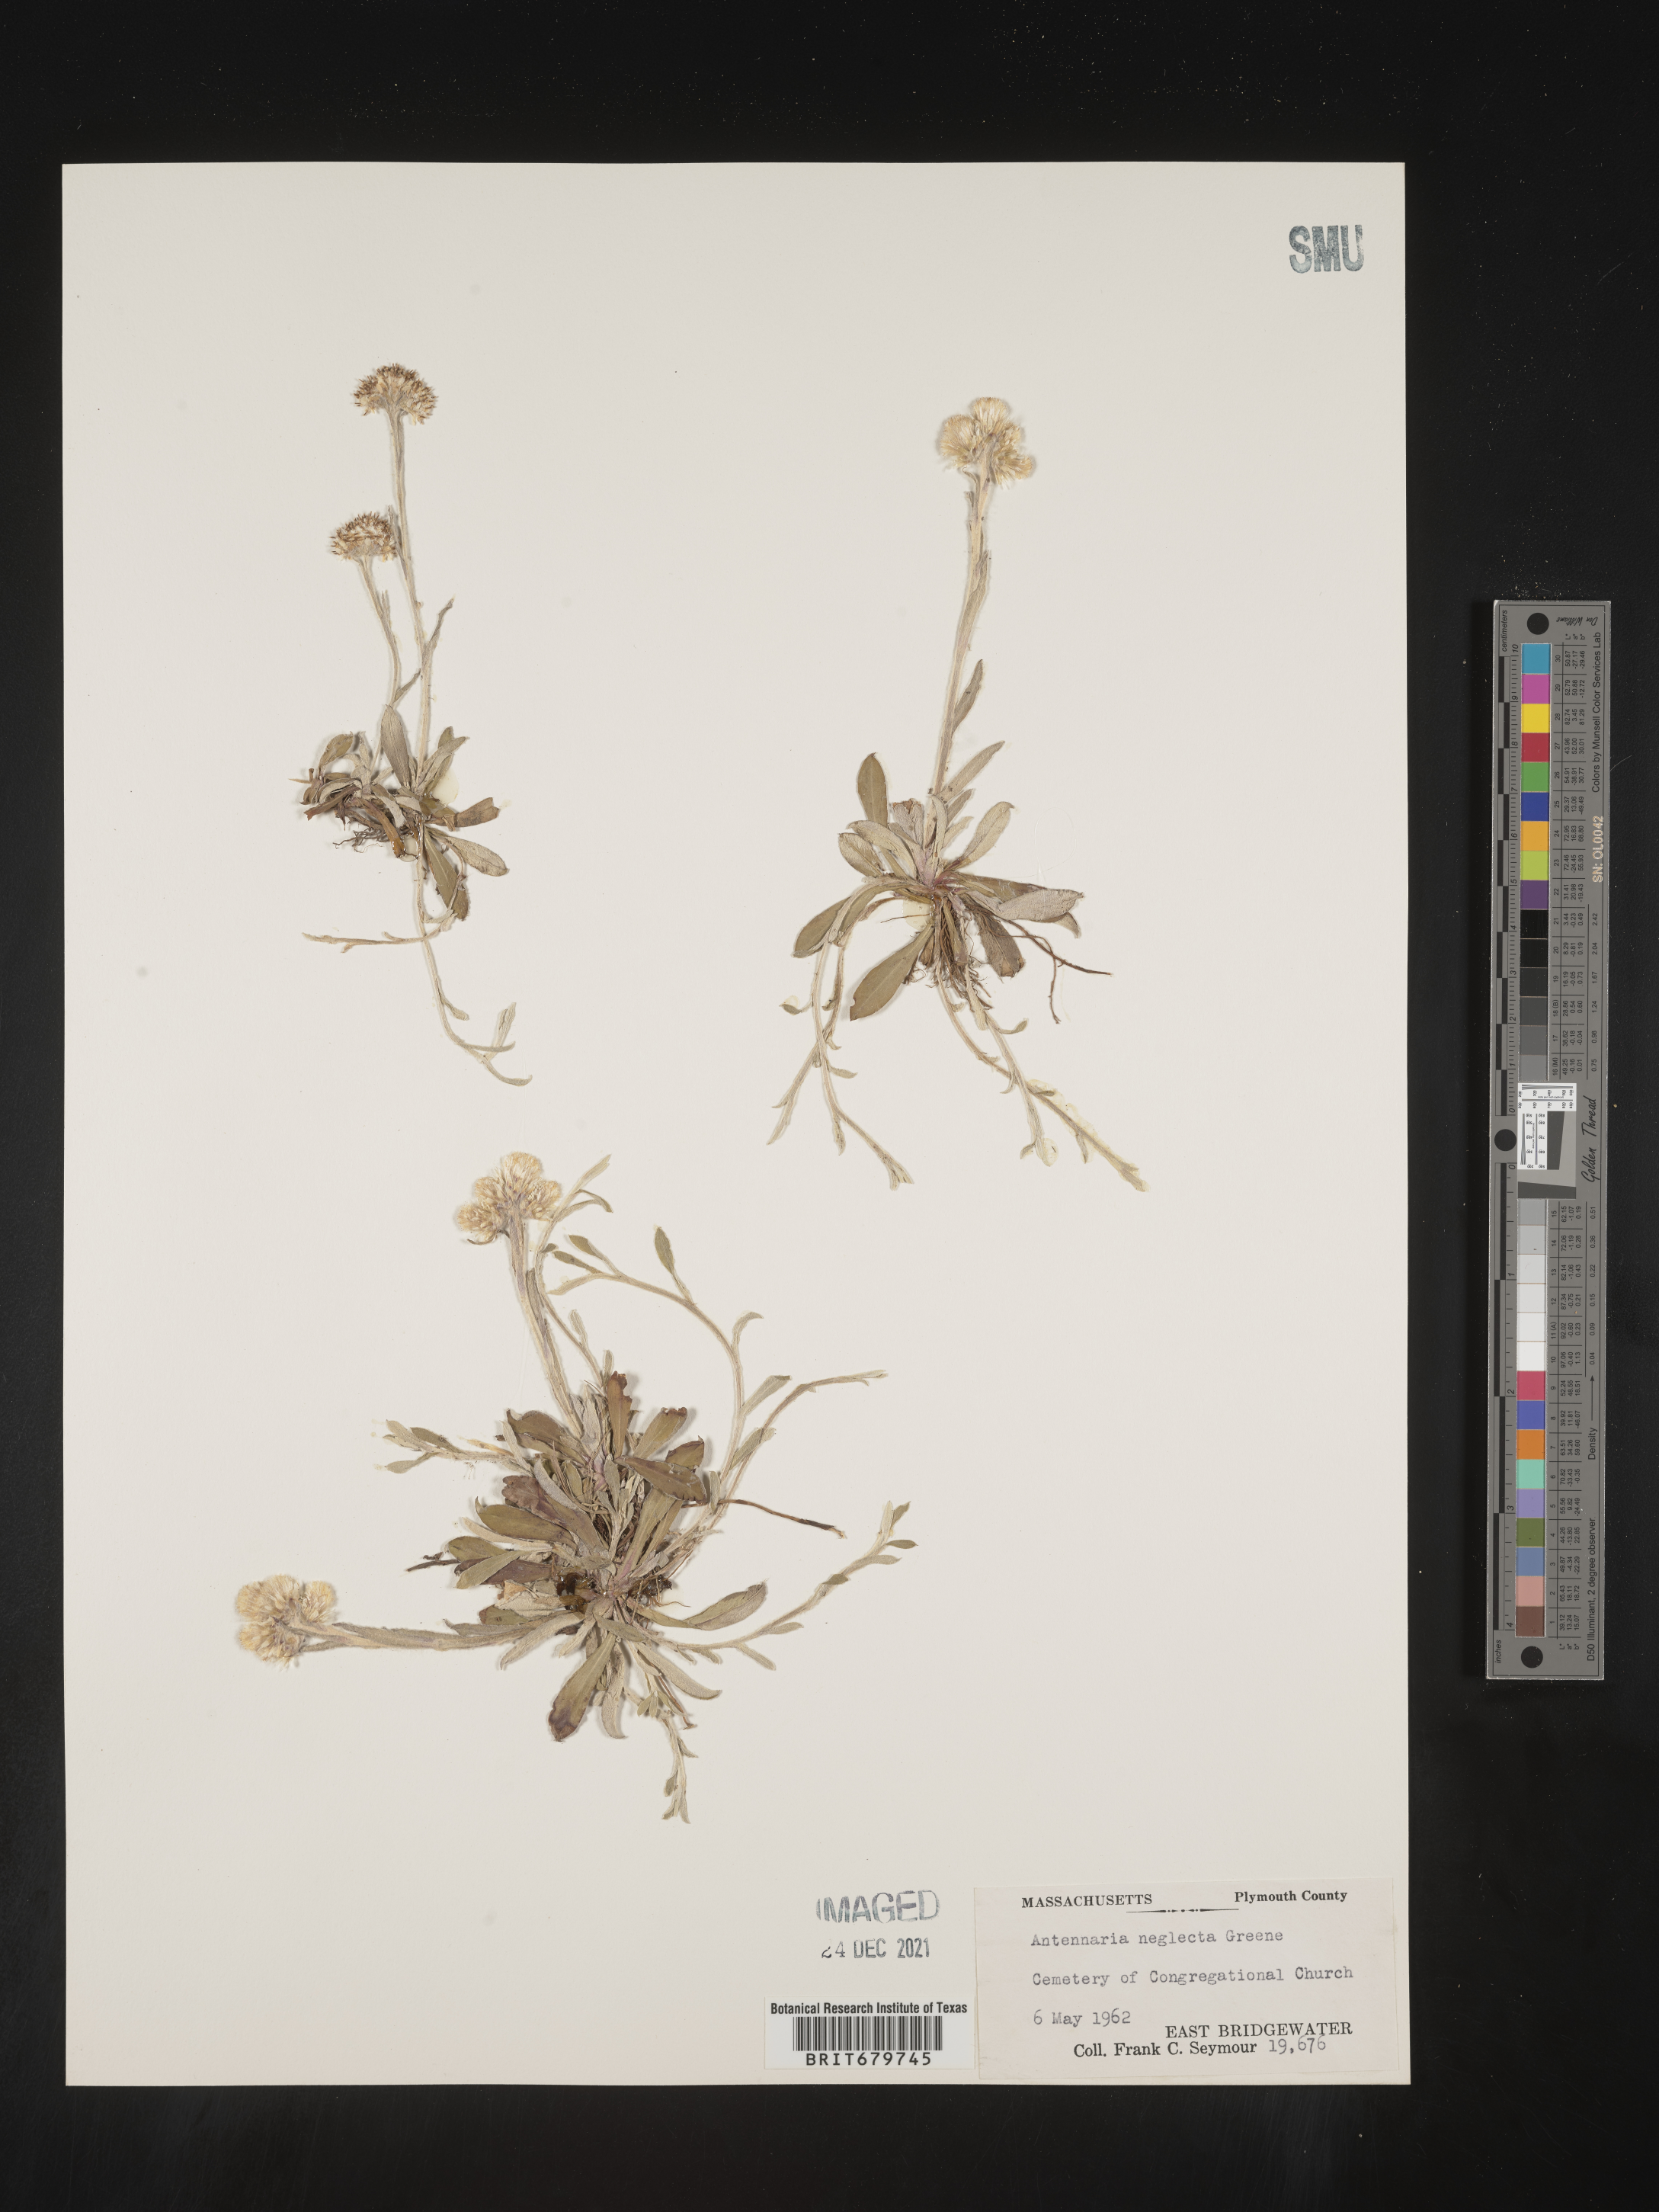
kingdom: Plantae
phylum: Tracheophyta
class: Magnoliopsida
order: Asterales
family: Asteraceae
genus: Antennaria
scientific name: Antennaria neglecta
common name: Field pussytoes
